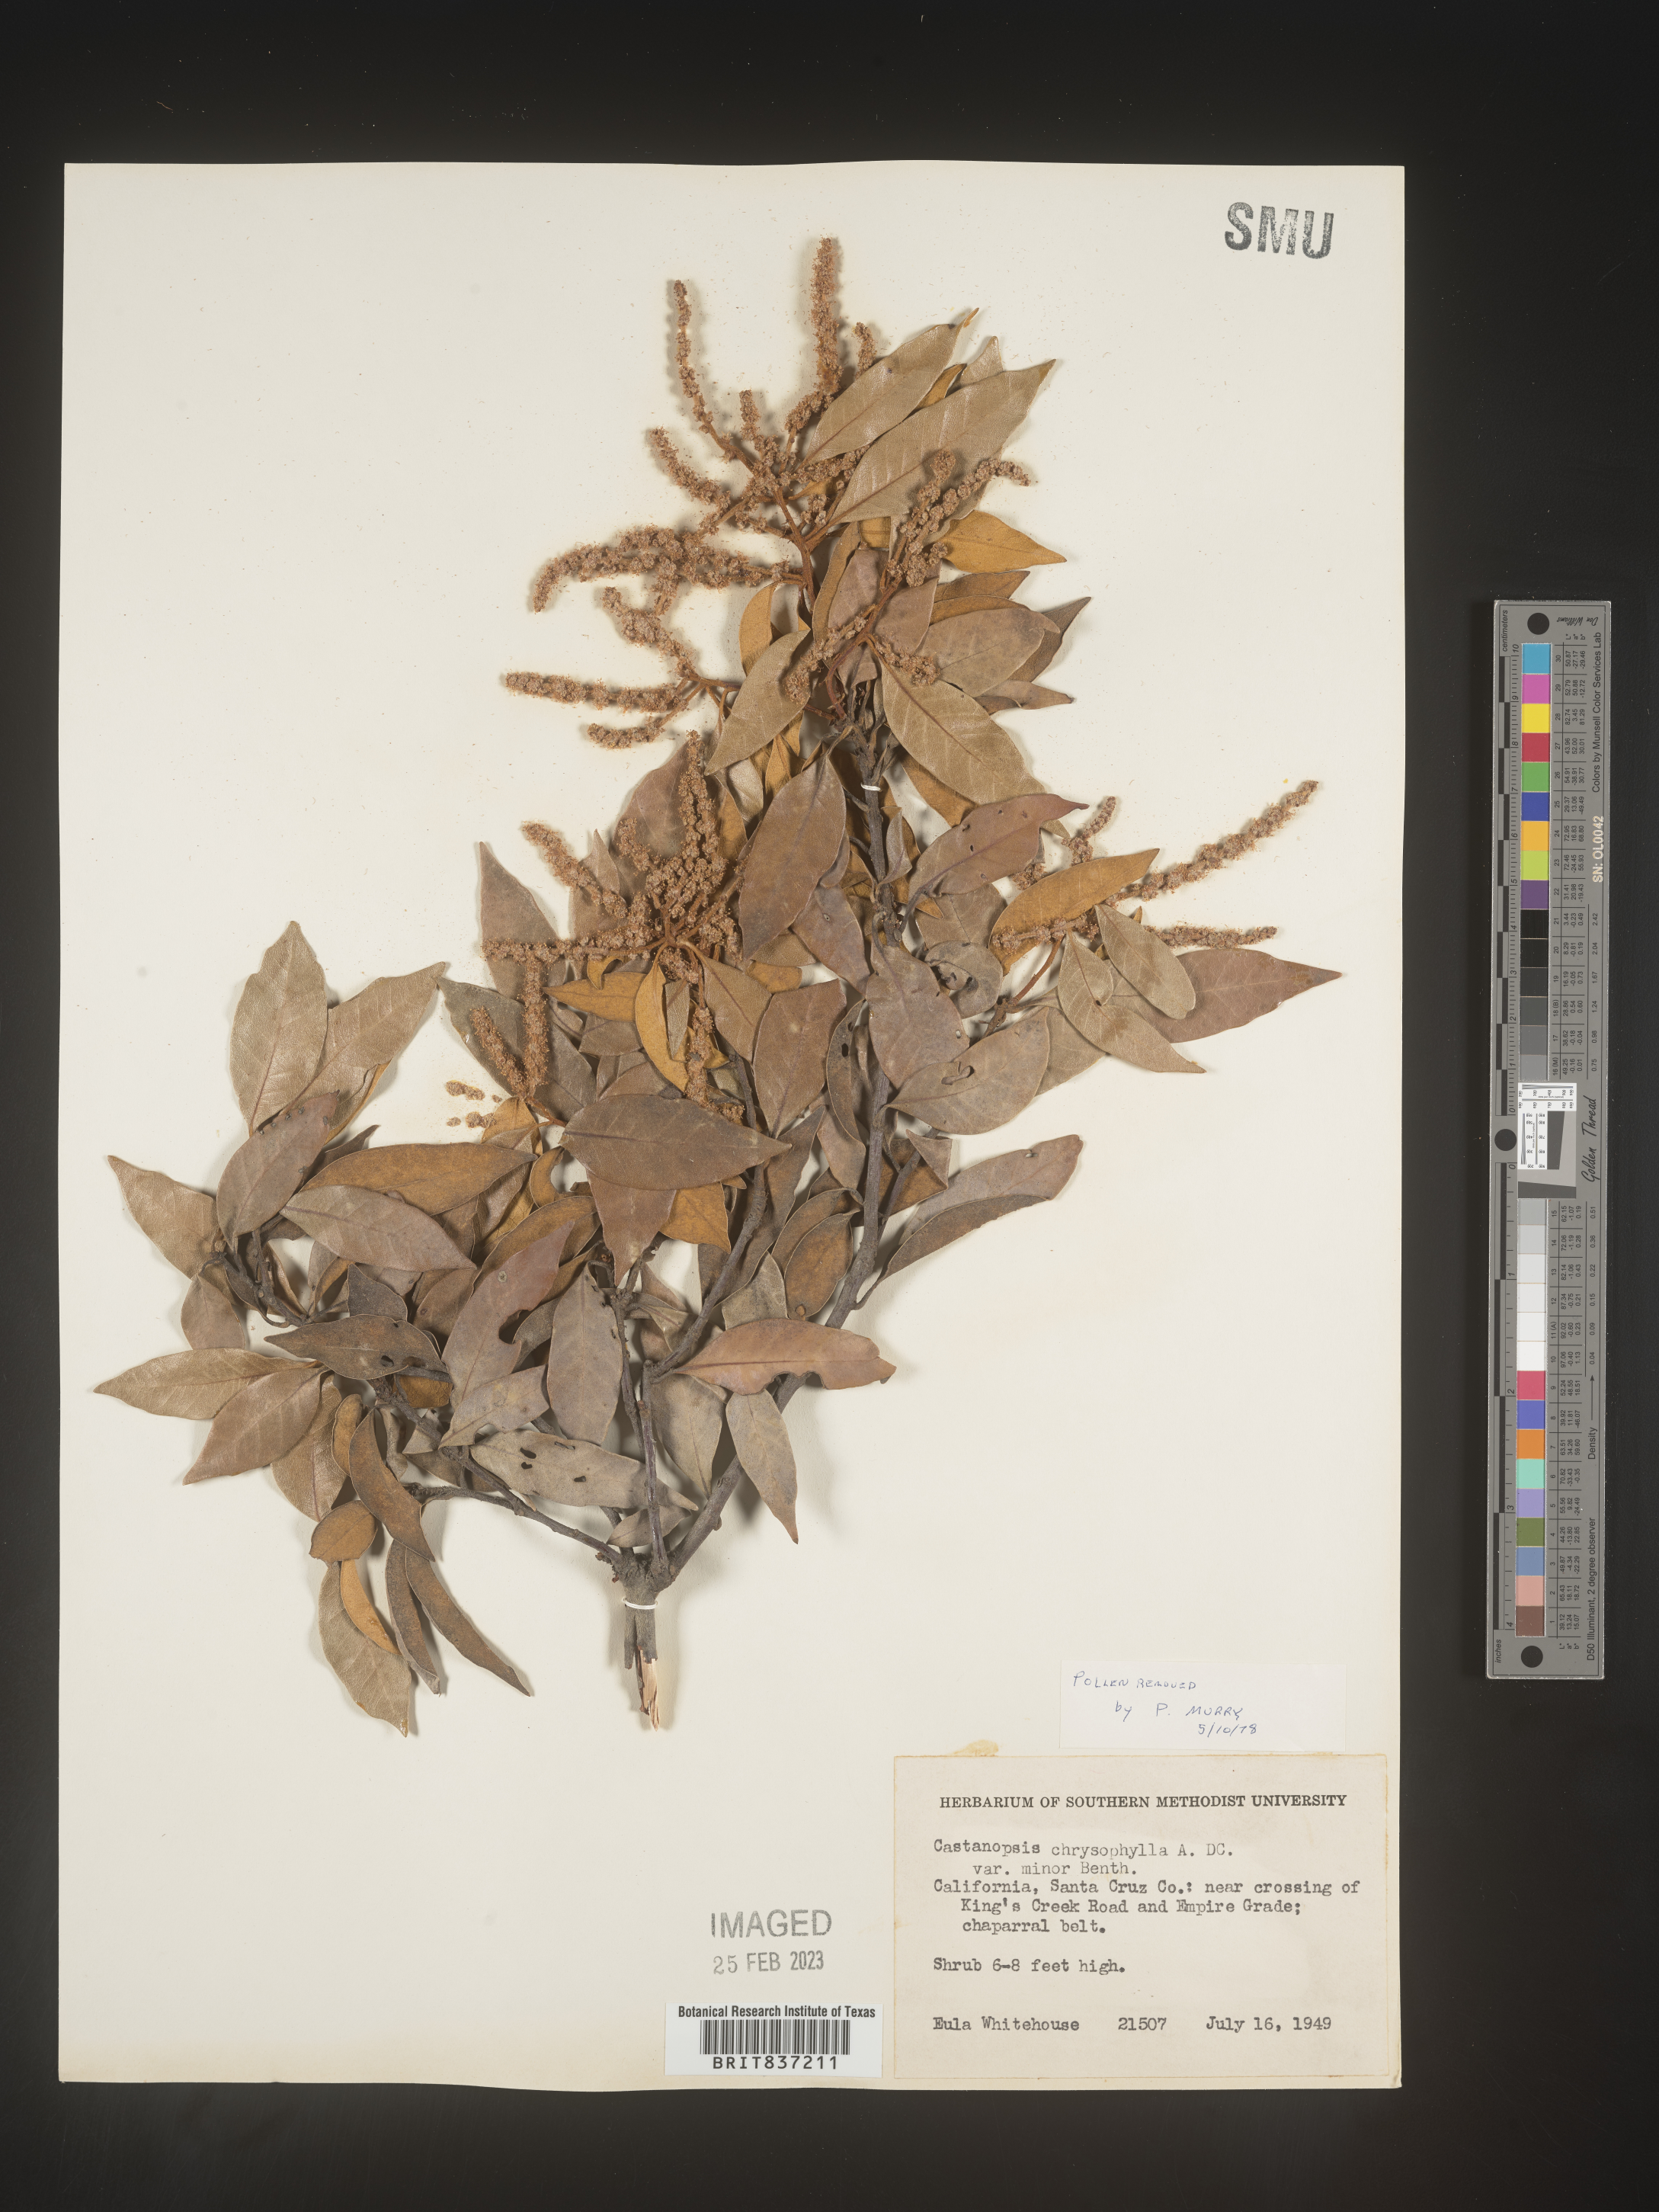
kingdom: Plantae
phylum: Tracheophyta
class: Magnoliopsida
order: Fagales
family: Fagaceae
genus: Castanopsis
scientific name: Castanopsis
